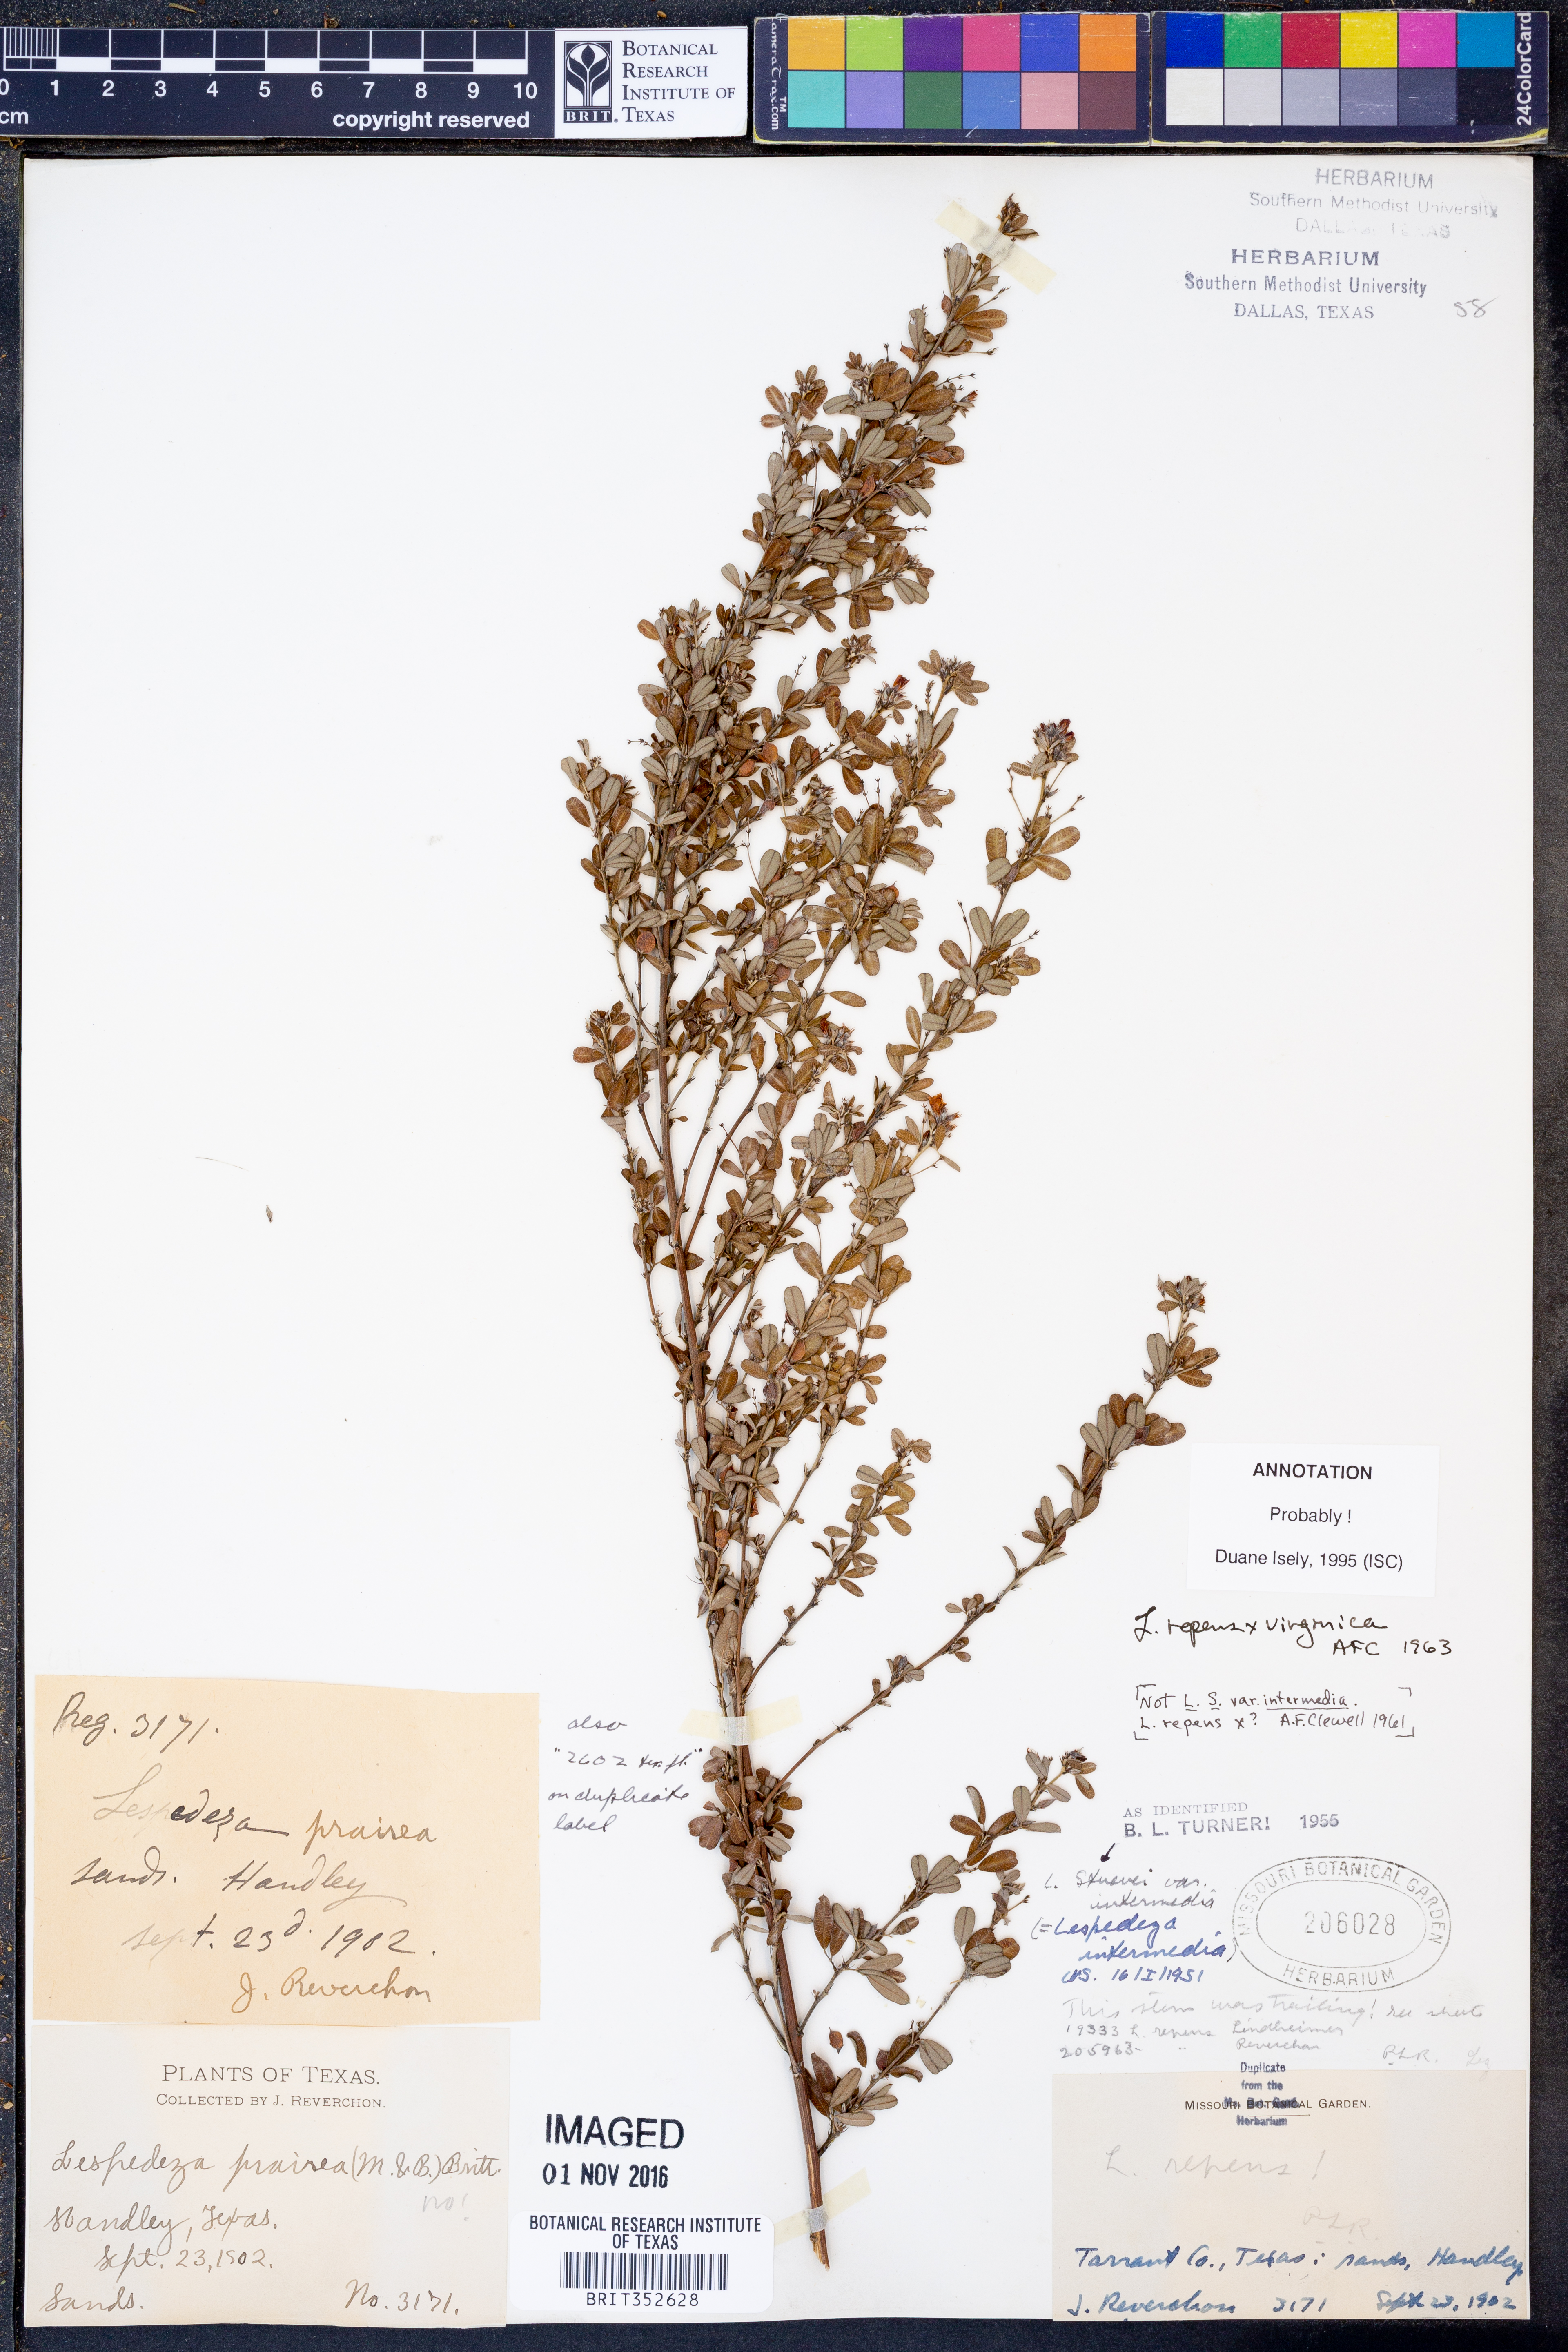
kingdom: Plantae
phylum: Tracheophyta
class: Magnoliopsida
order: Fabales
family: Fabaceae
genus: Lespedeza
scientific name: Lespedeza repens
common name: Creeping bush-clover
